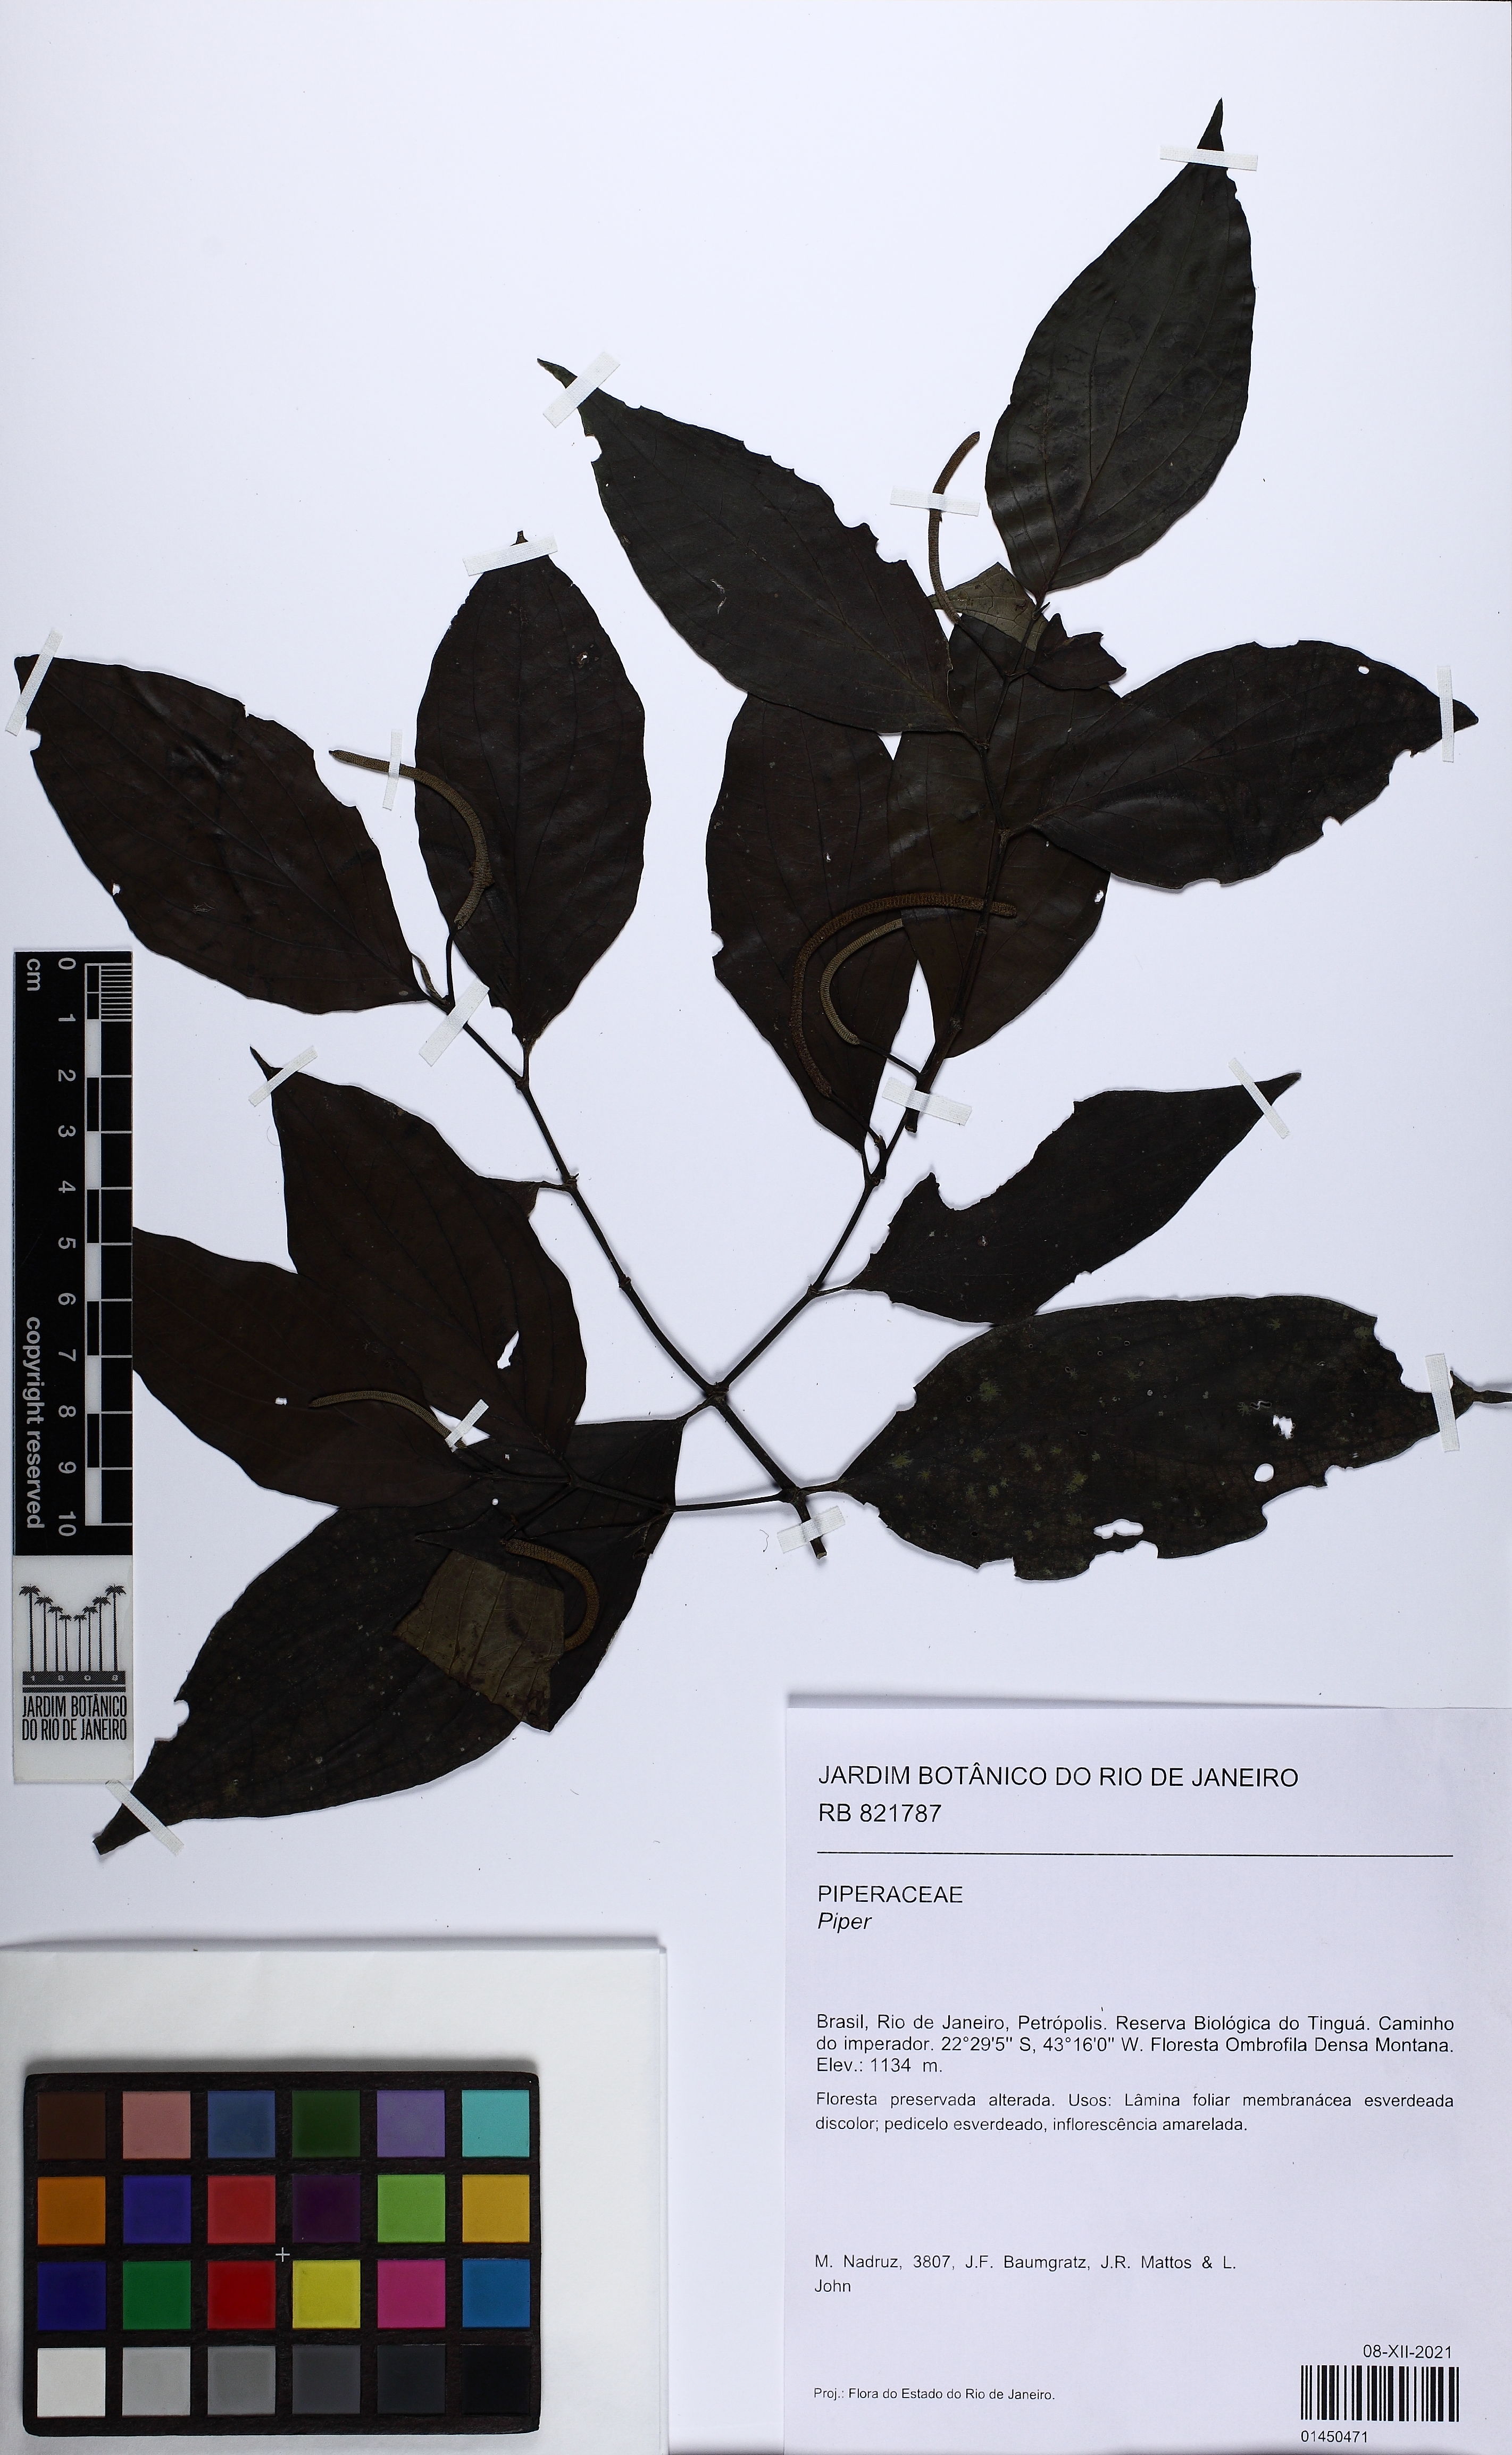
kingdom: Plantae
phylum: Tracheophyta
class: Magnoliopsida
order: Piperales
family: Piperaceae
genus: Piper
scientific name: Piper
